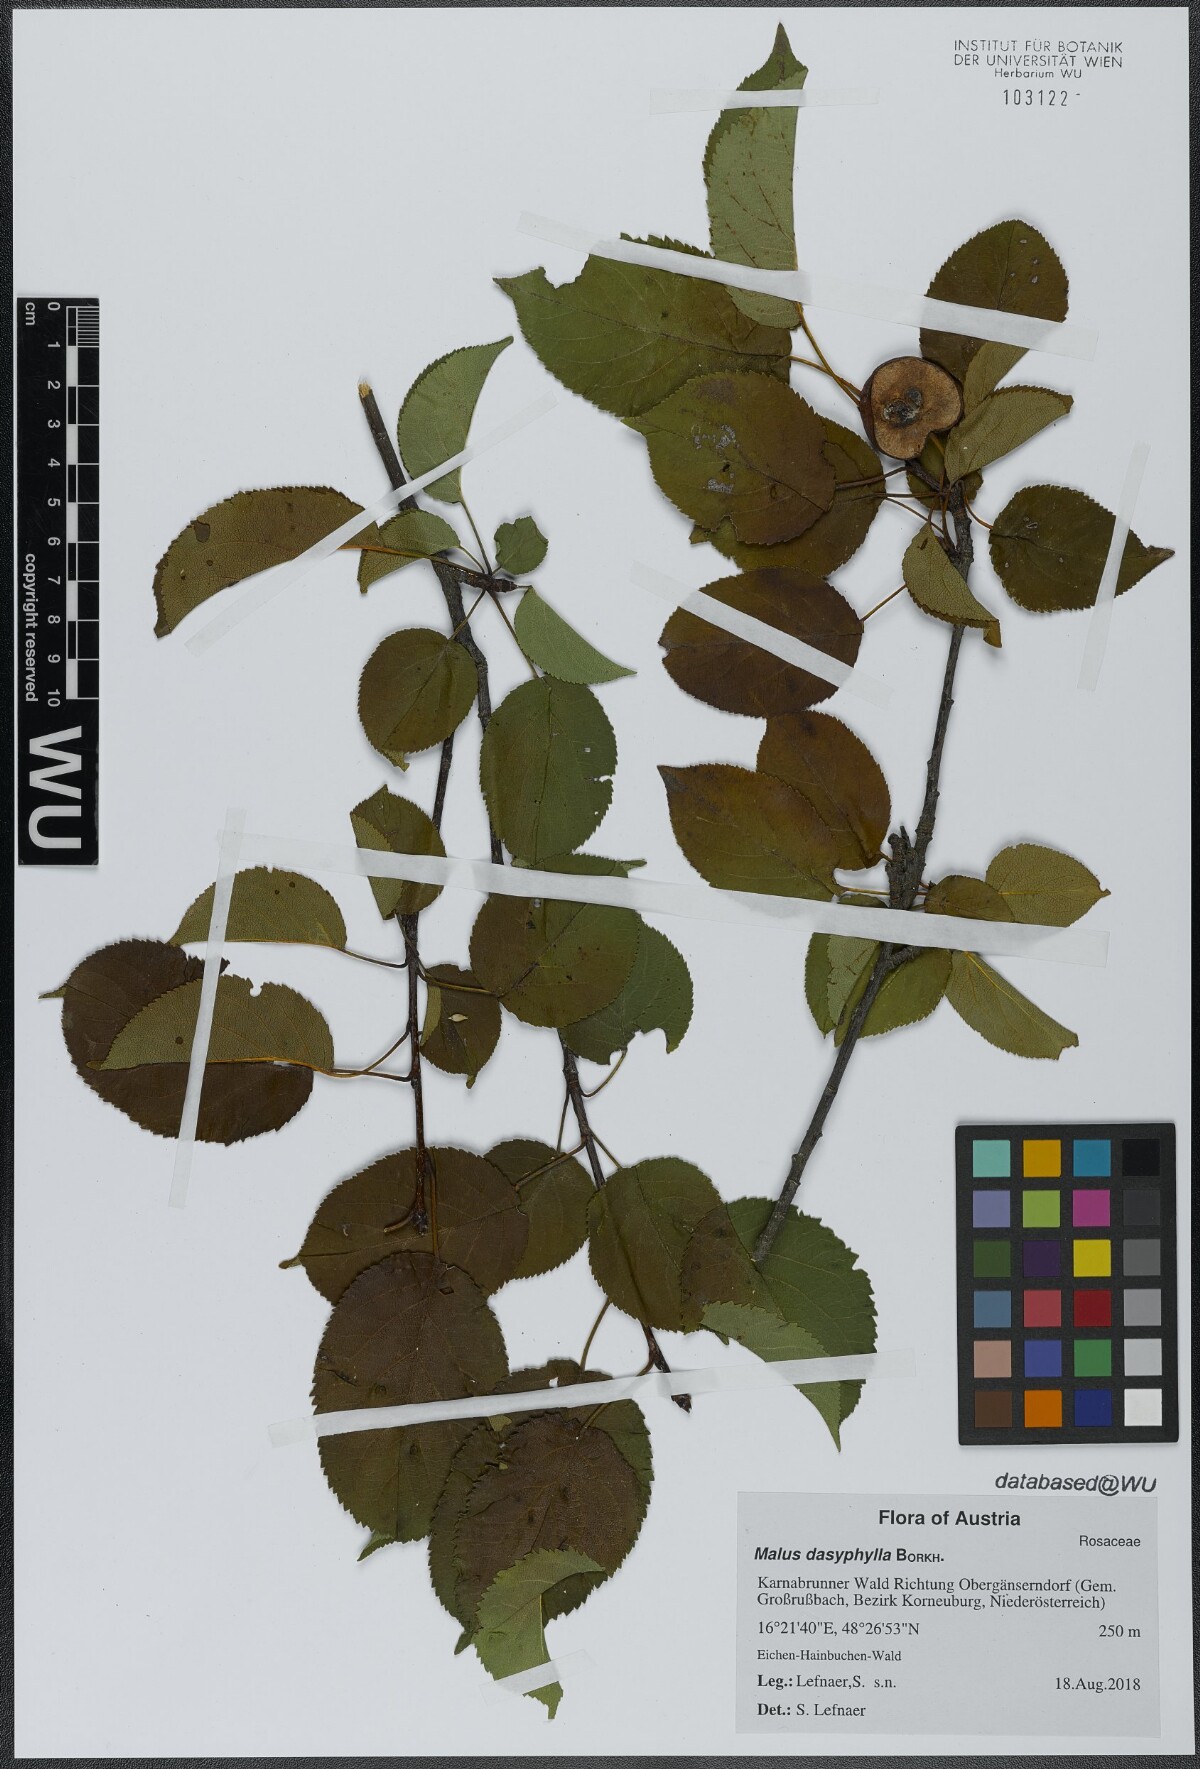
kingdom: Plantae
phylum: Tracheophyta
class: Magnoliopsida
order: Rosales
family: Rosaceae
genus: Malus
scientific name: Malus dasyphylla
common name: Paradise apple
